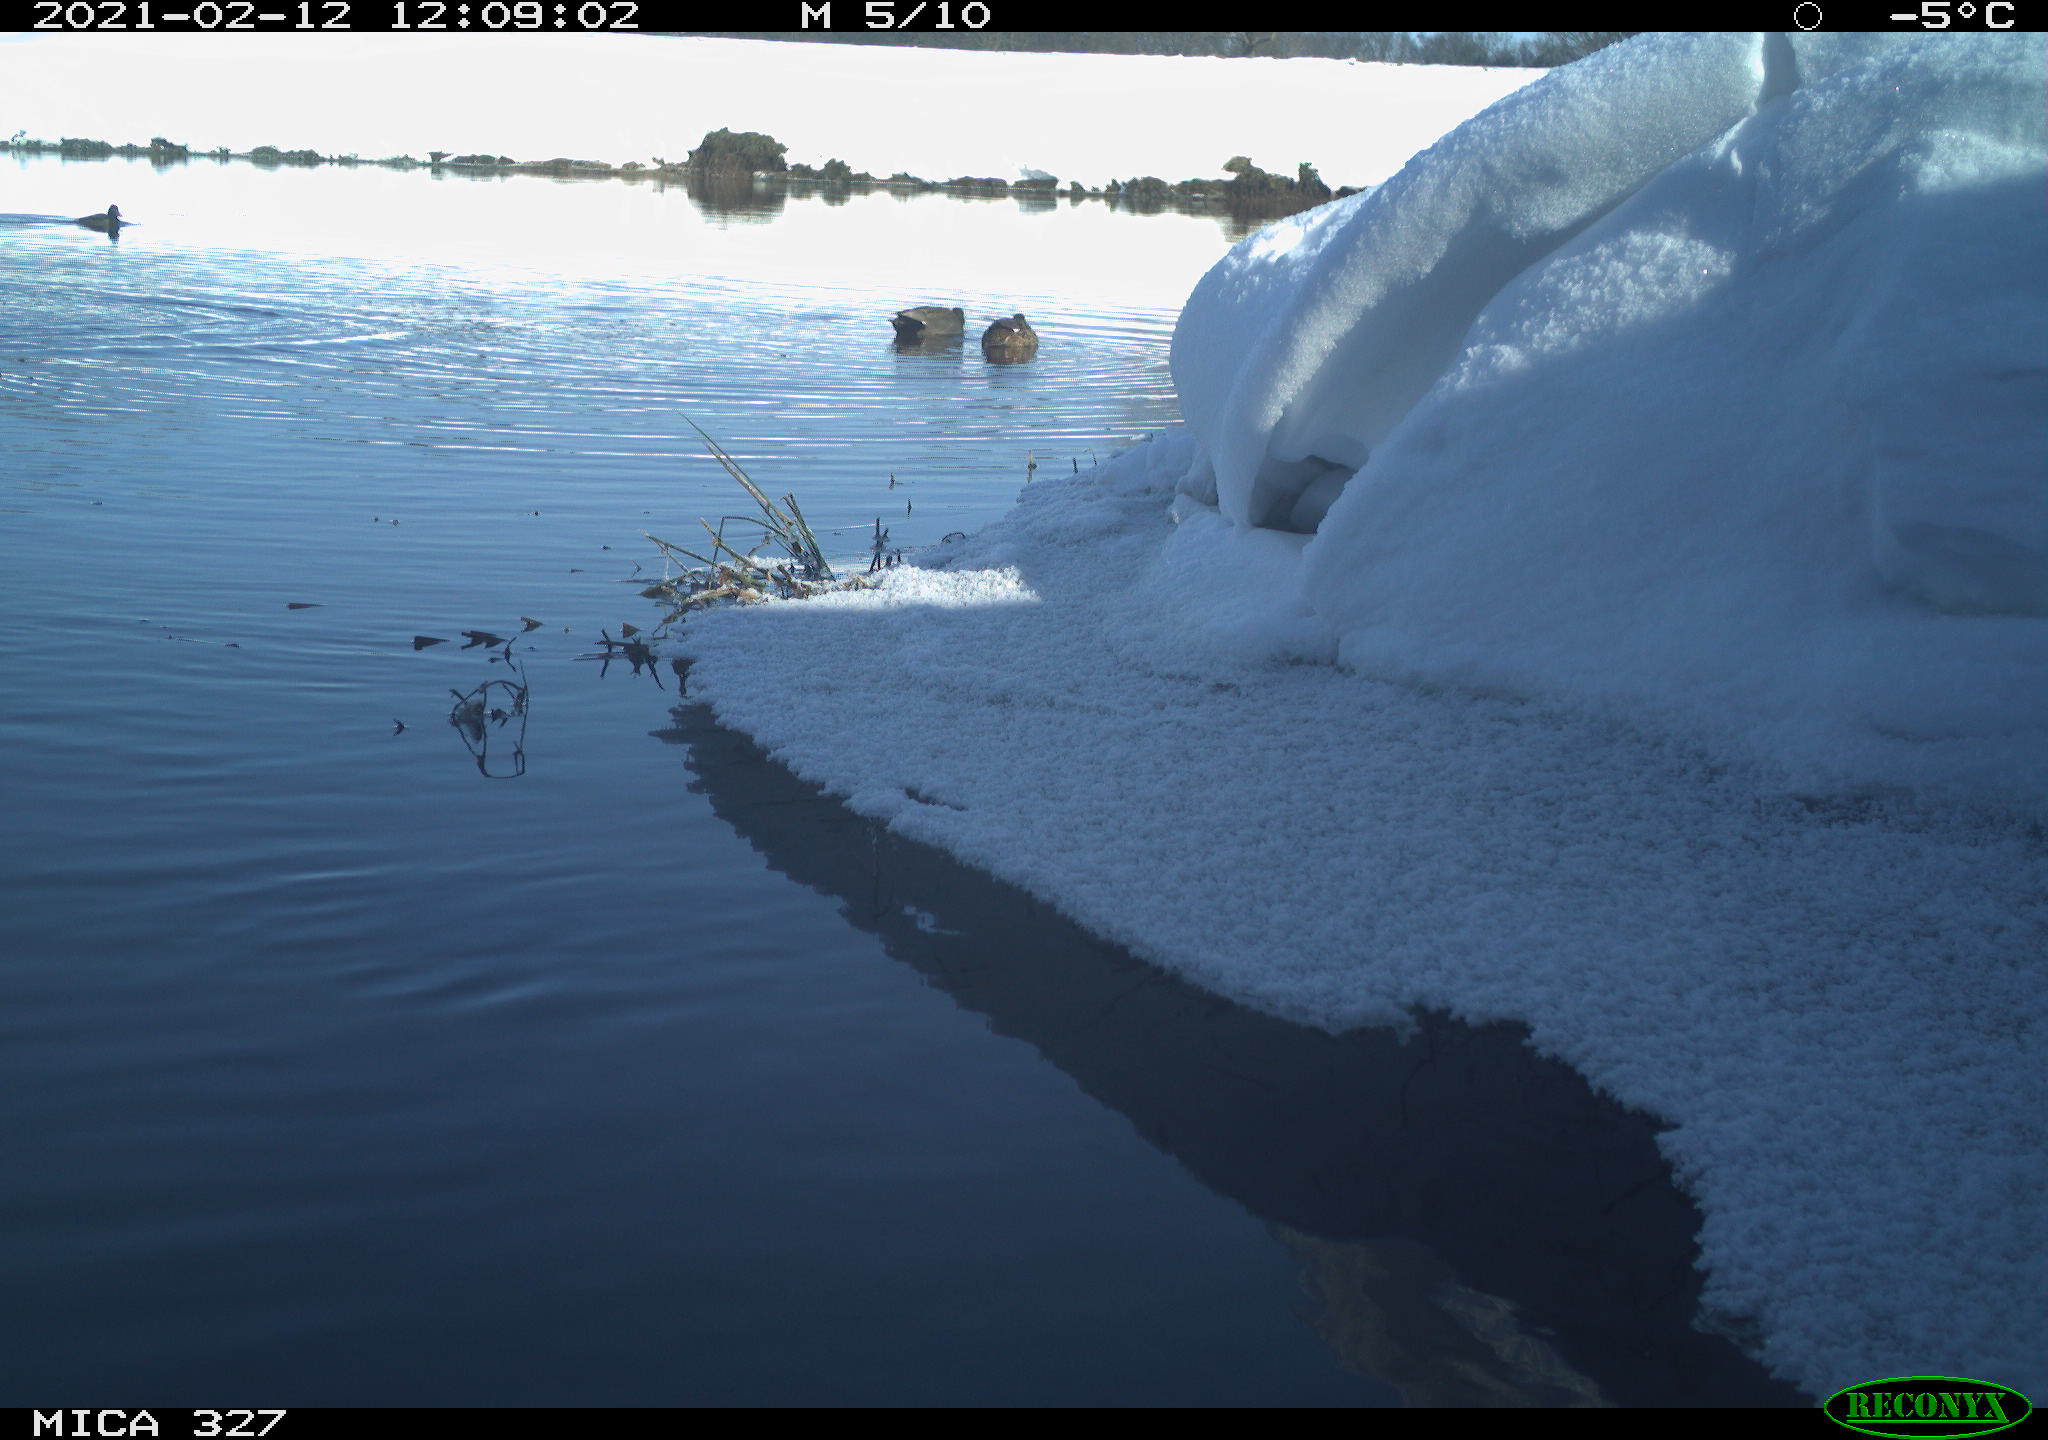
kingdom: Animalia
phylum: Chordata
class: Aves
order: Pelecaniformes
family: Ardeidae
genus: Ardea
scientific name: Ardea cinerea
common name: Grey heron
